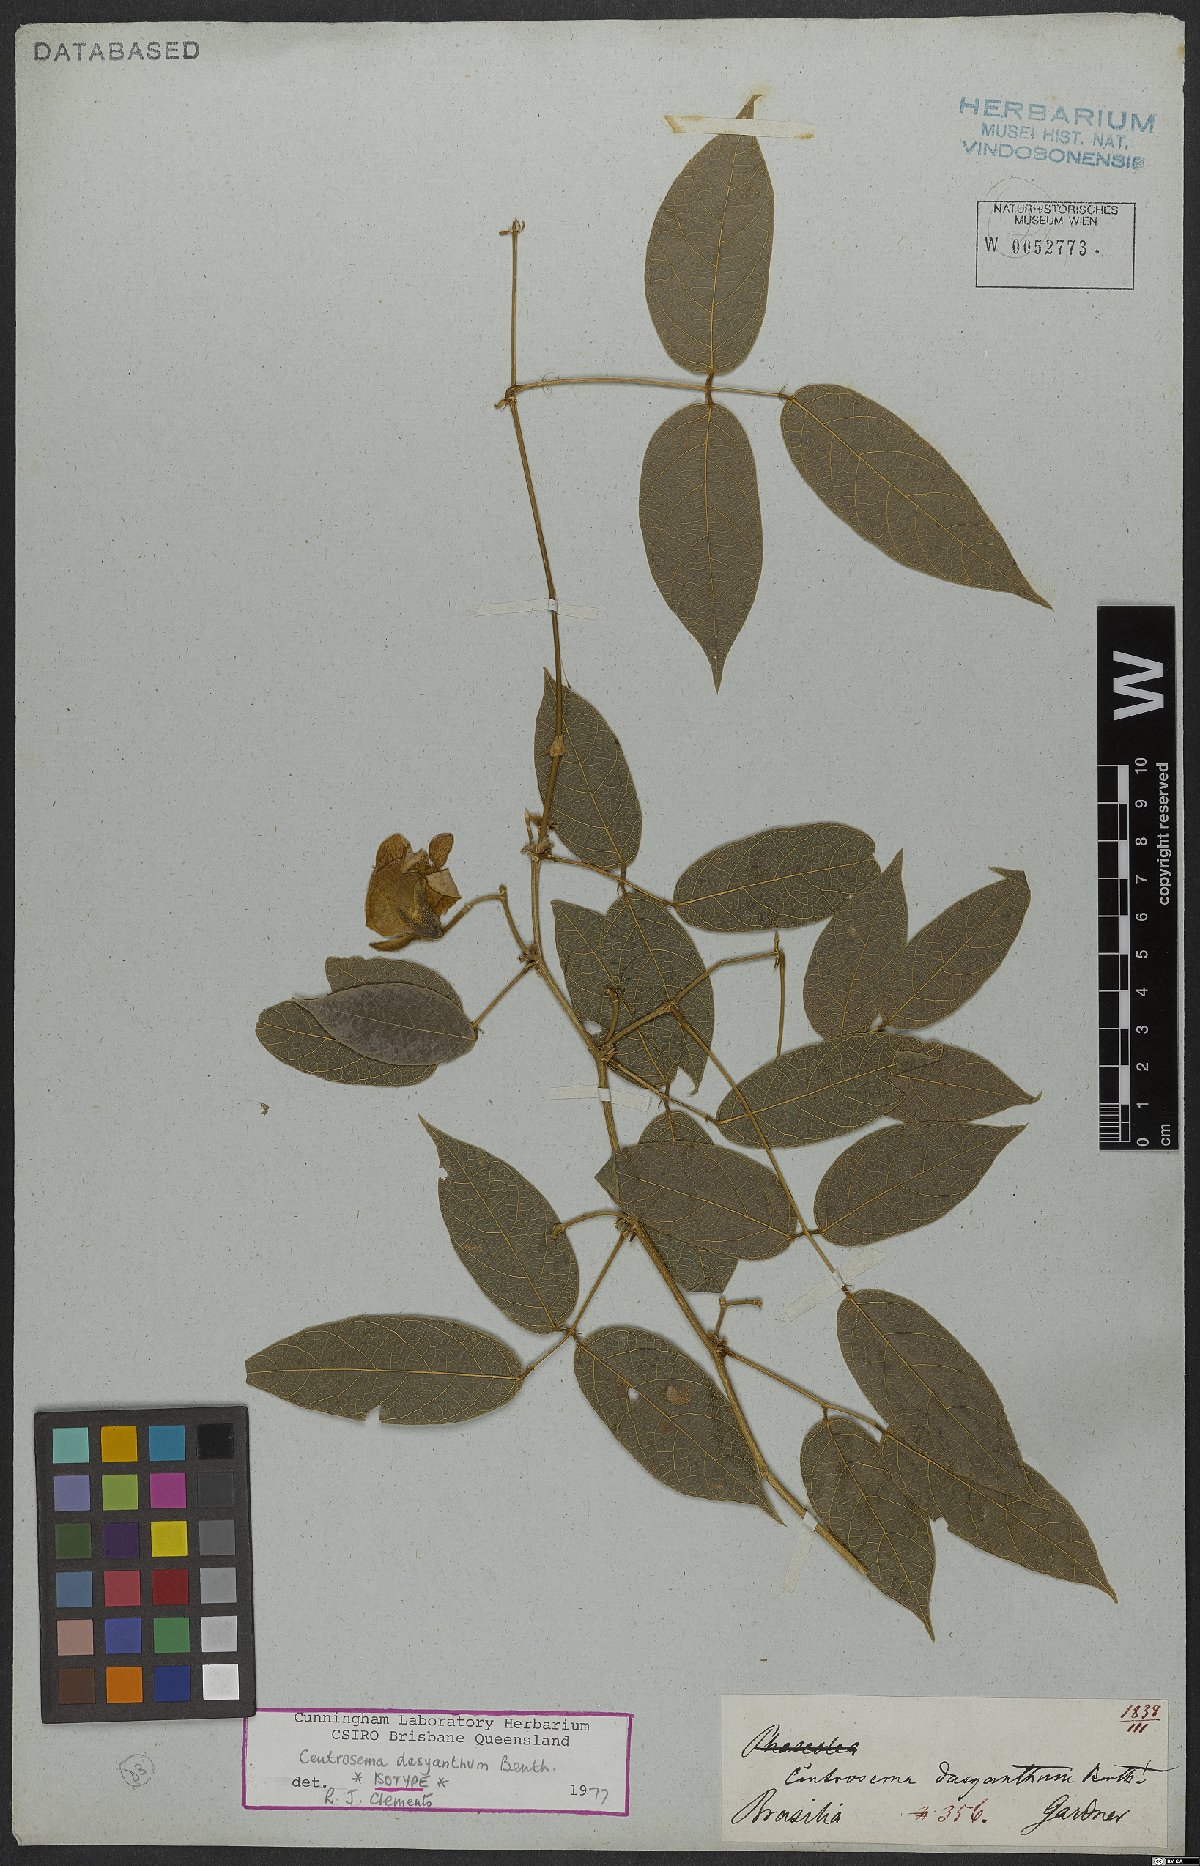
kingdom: Plantae
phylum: Tracheophyta
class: Magnoliopsida
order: Fabales
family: Fabaceae
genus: Centrosema
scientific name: Centrosema dasyanthum
